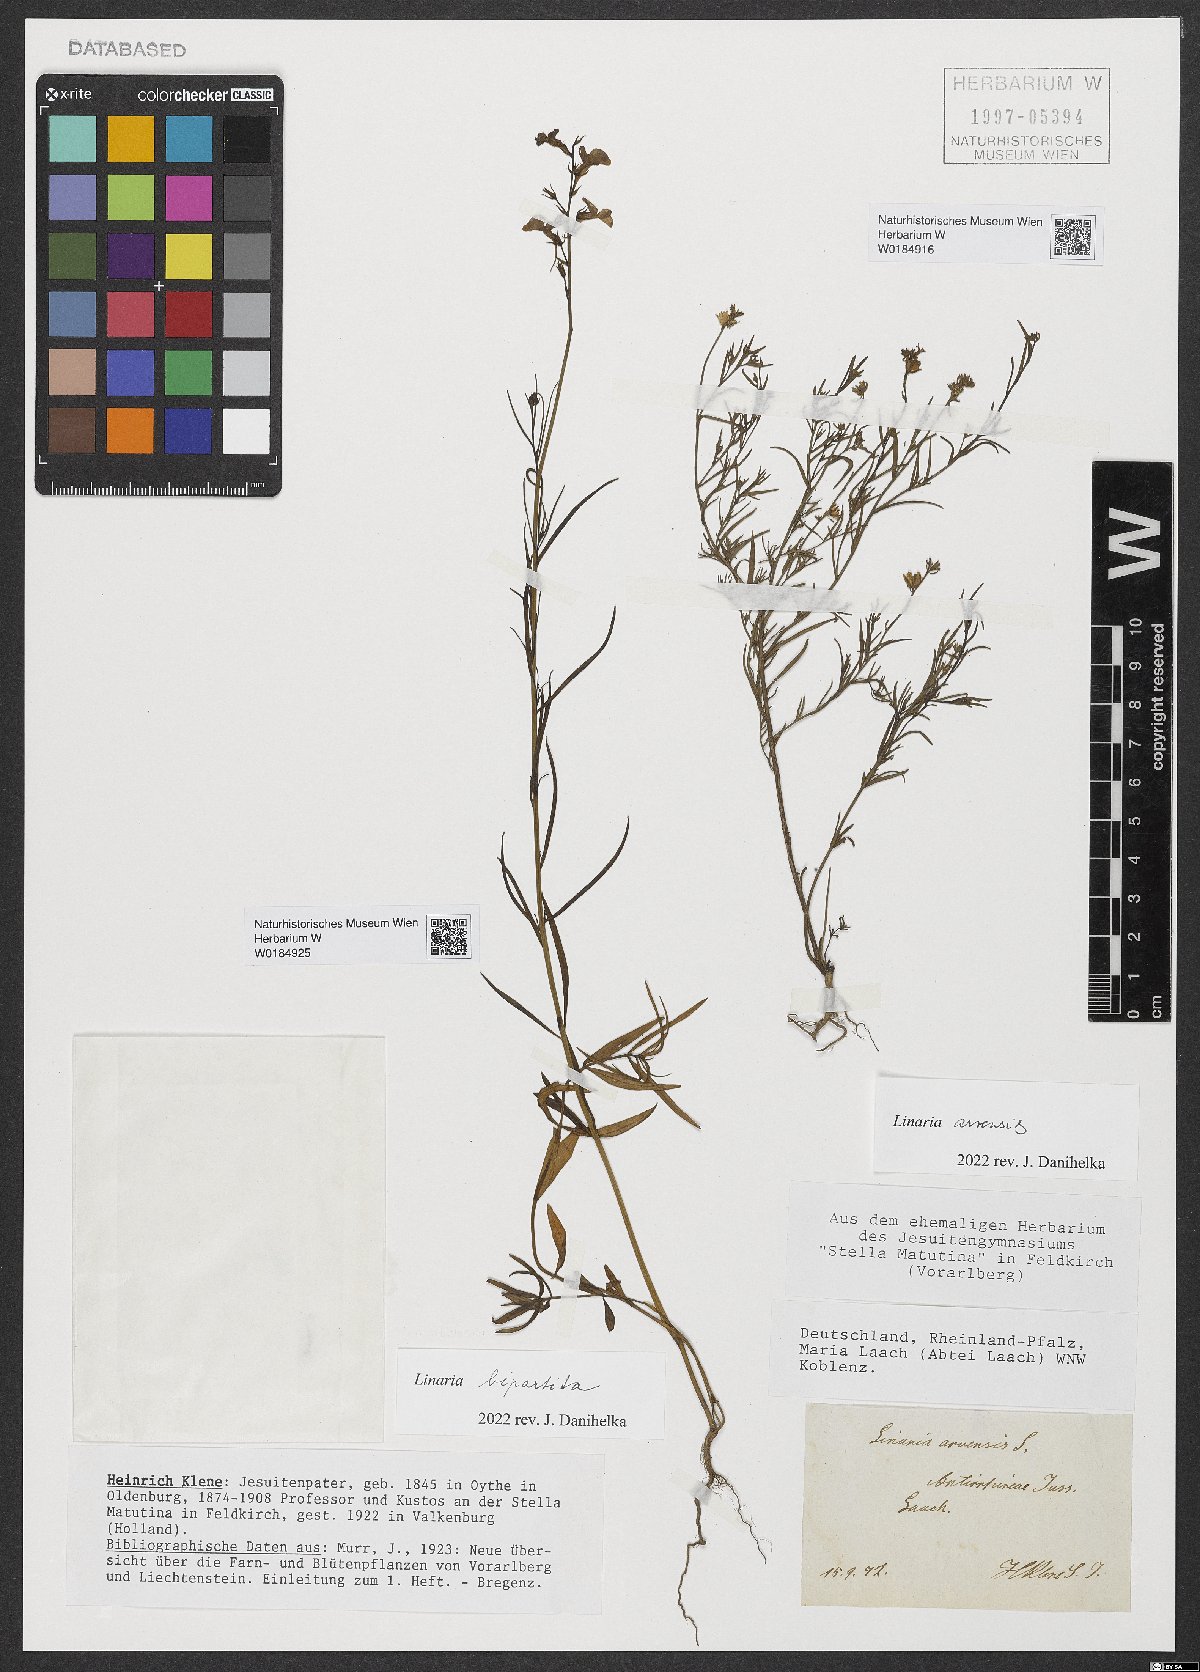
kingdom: Plantae
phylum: Tracheophyta
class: Magnoliopsida
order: Lamiales
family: Plantaginaceae
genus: Linaria
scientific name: Linaria arvensis
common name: Corn toadflax
